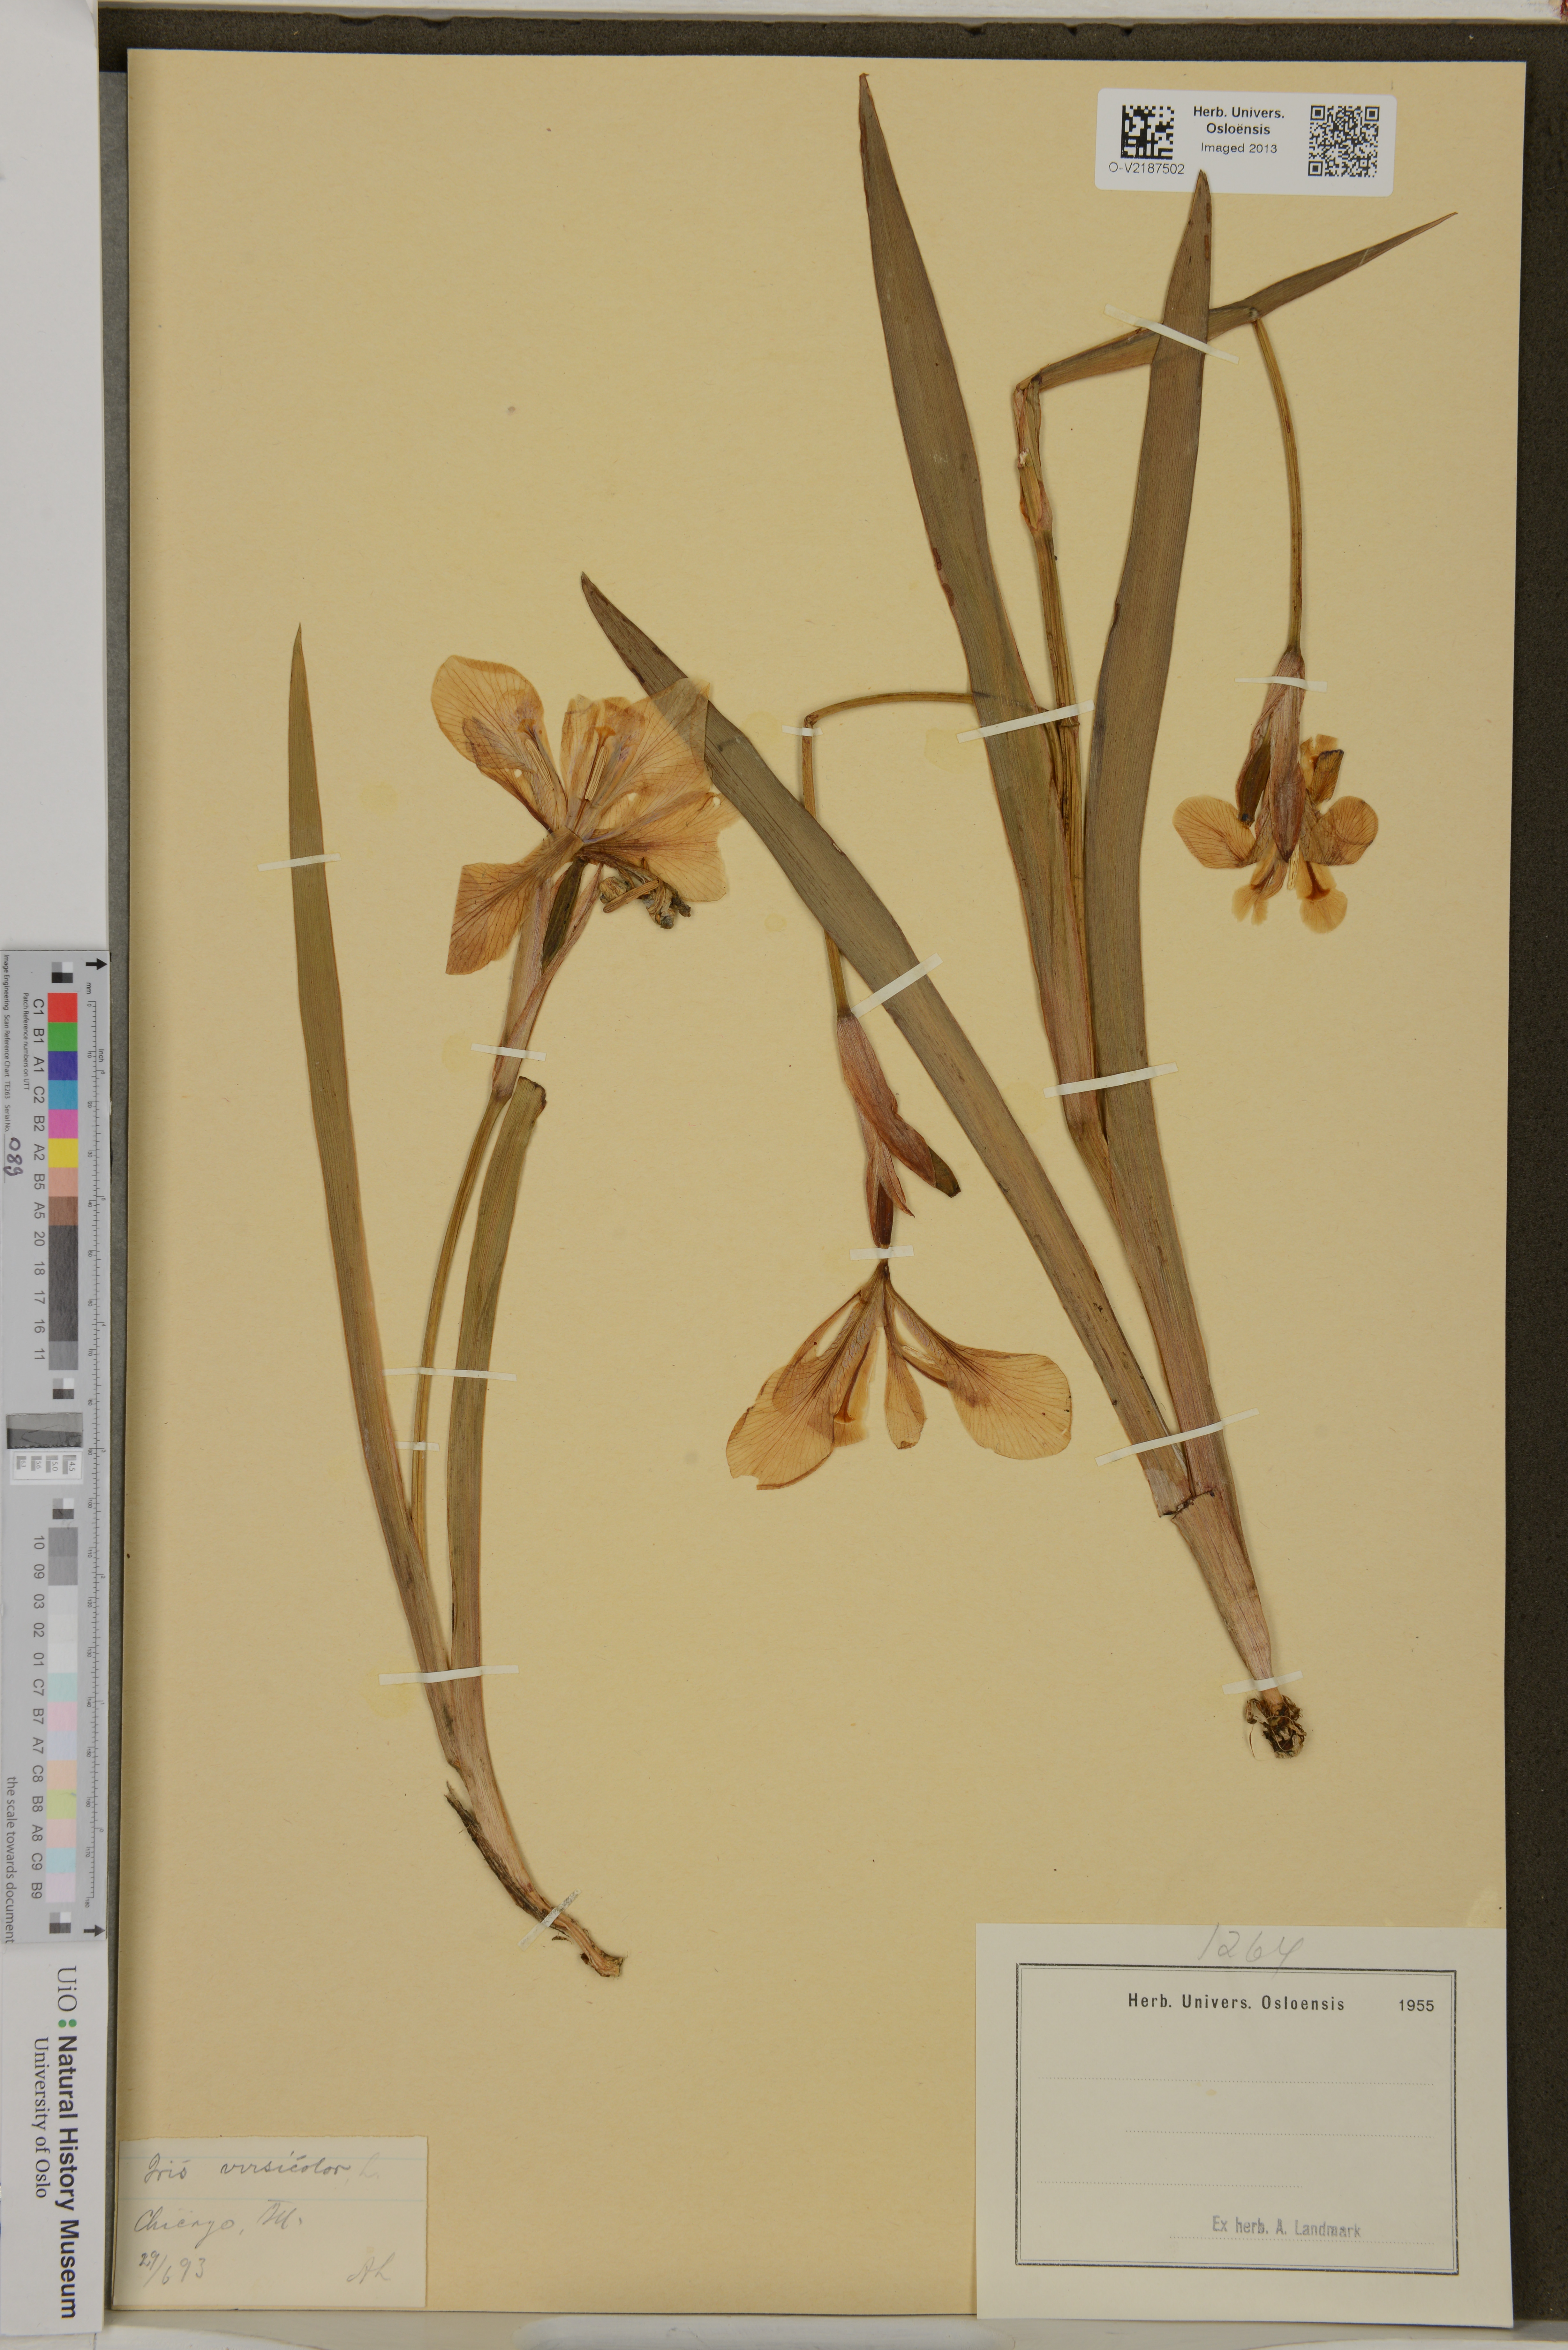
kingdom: Plantae
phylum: Tracheophyta
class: Liliopsida
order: Asparagales
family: Iridaceae
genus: Iris
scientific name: Iris versicolor
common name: Purple iris
